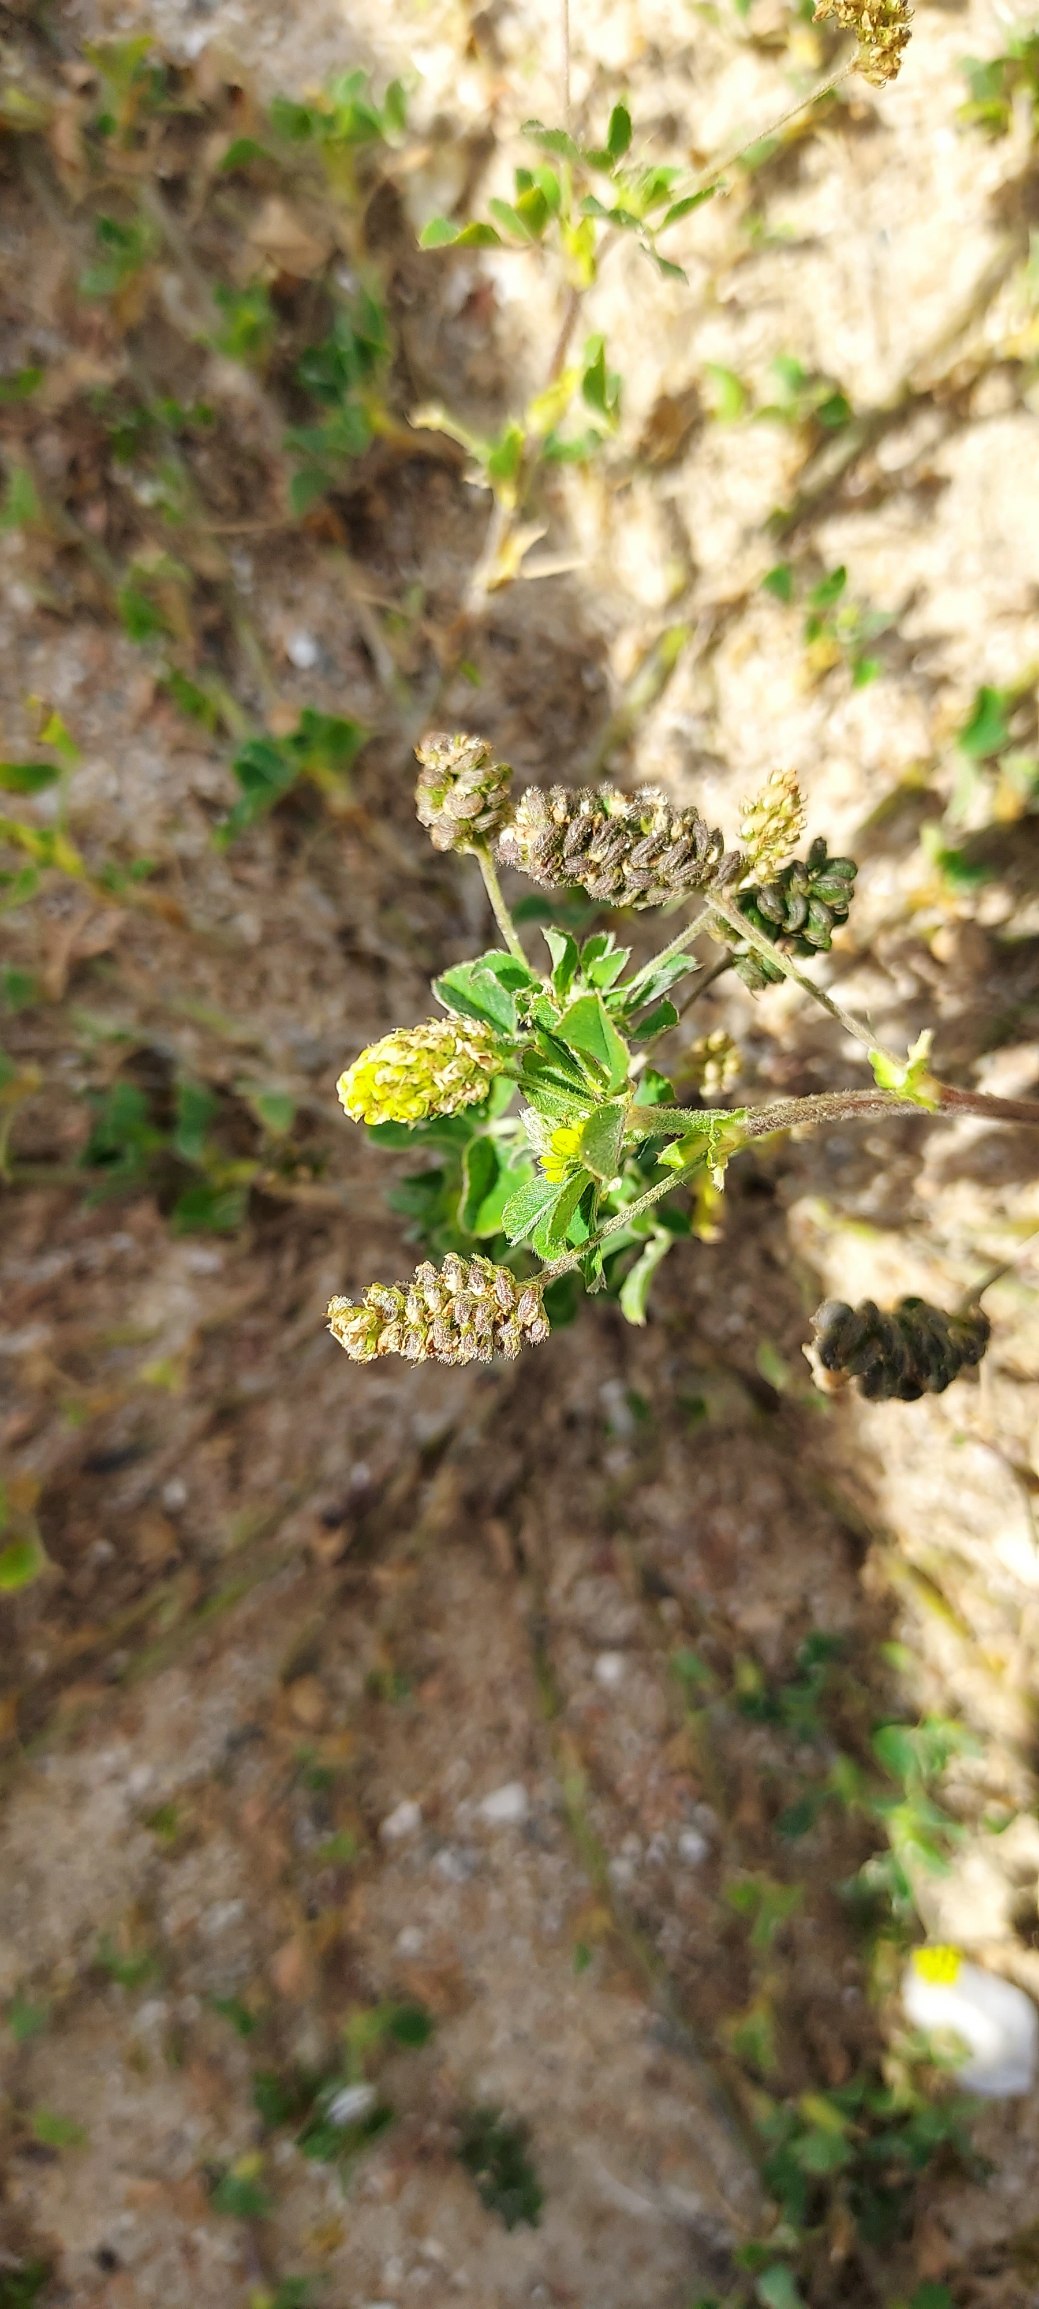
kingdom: Plantae
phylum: Tracheophyta
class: Magnoliopsida
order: Fabales
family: Fabaceae
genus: Medicago
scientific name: Medicago lupulina
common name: Humle-sneglebælg
